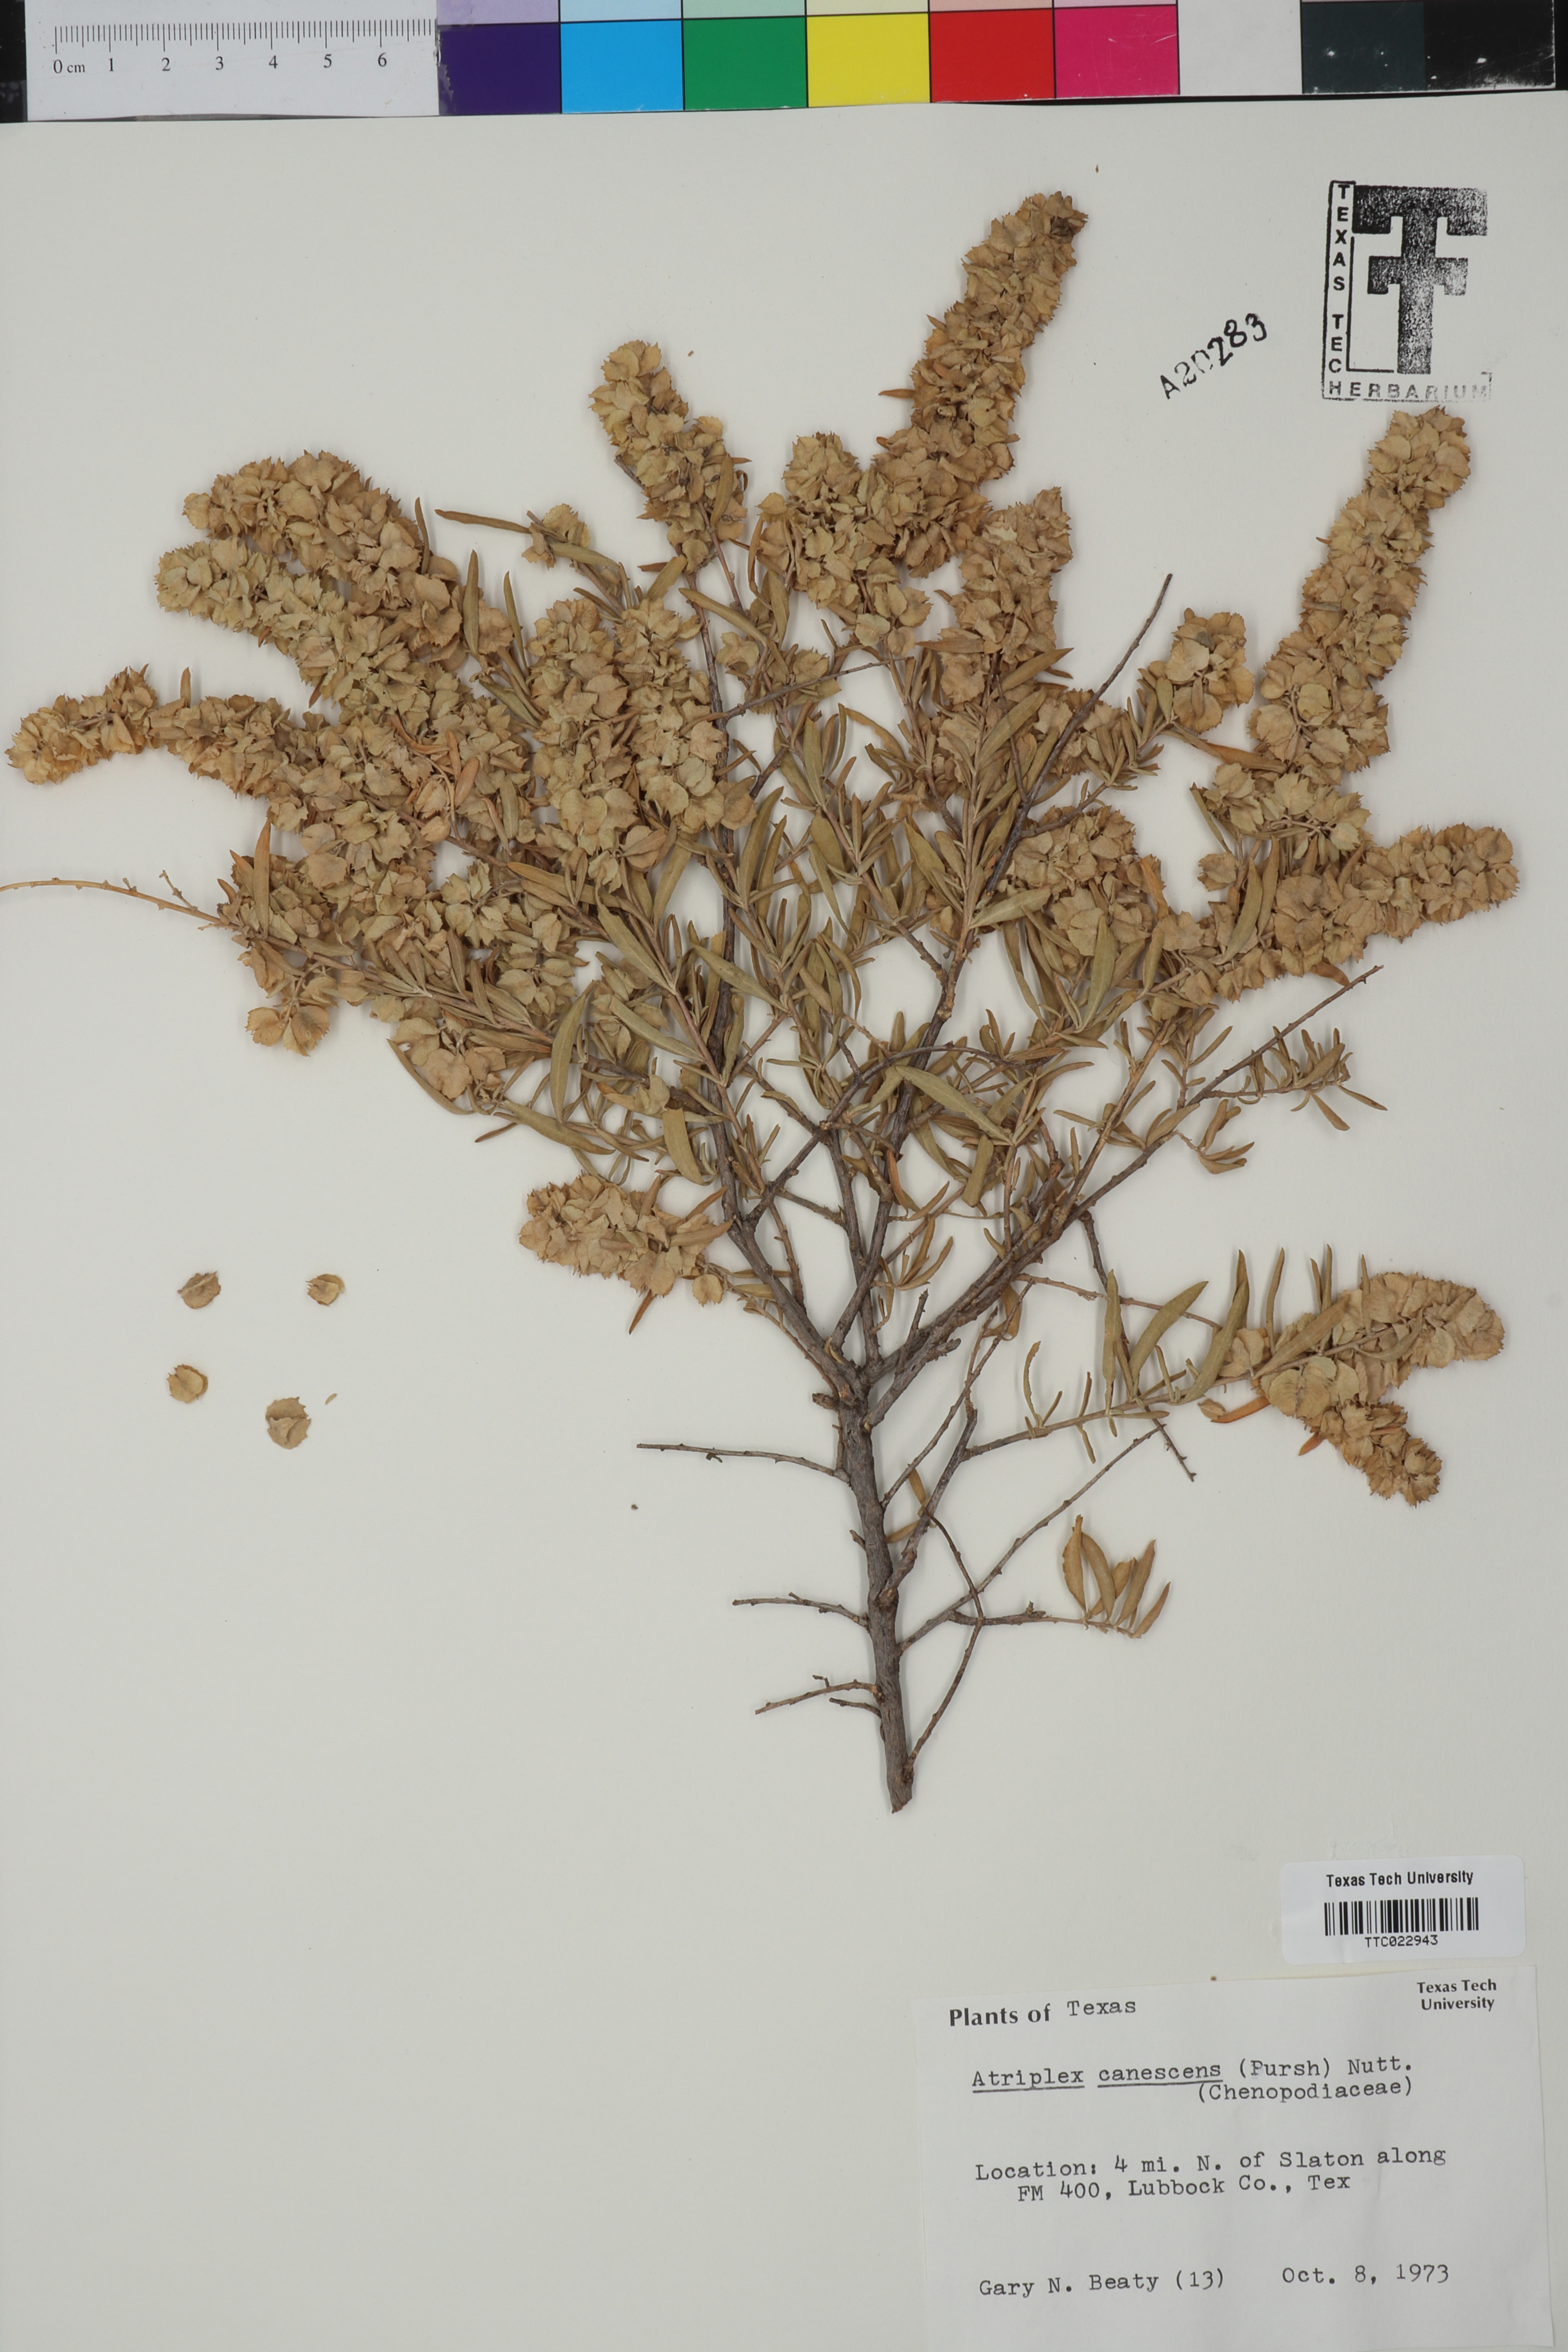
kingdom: Plantae
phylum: Tracheophyta
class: Magnoliopsida
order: Caryophyllales
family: Amaranthaceae
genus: Atriplex
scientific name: Atriplex canescens
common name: Four-wing saltbush
